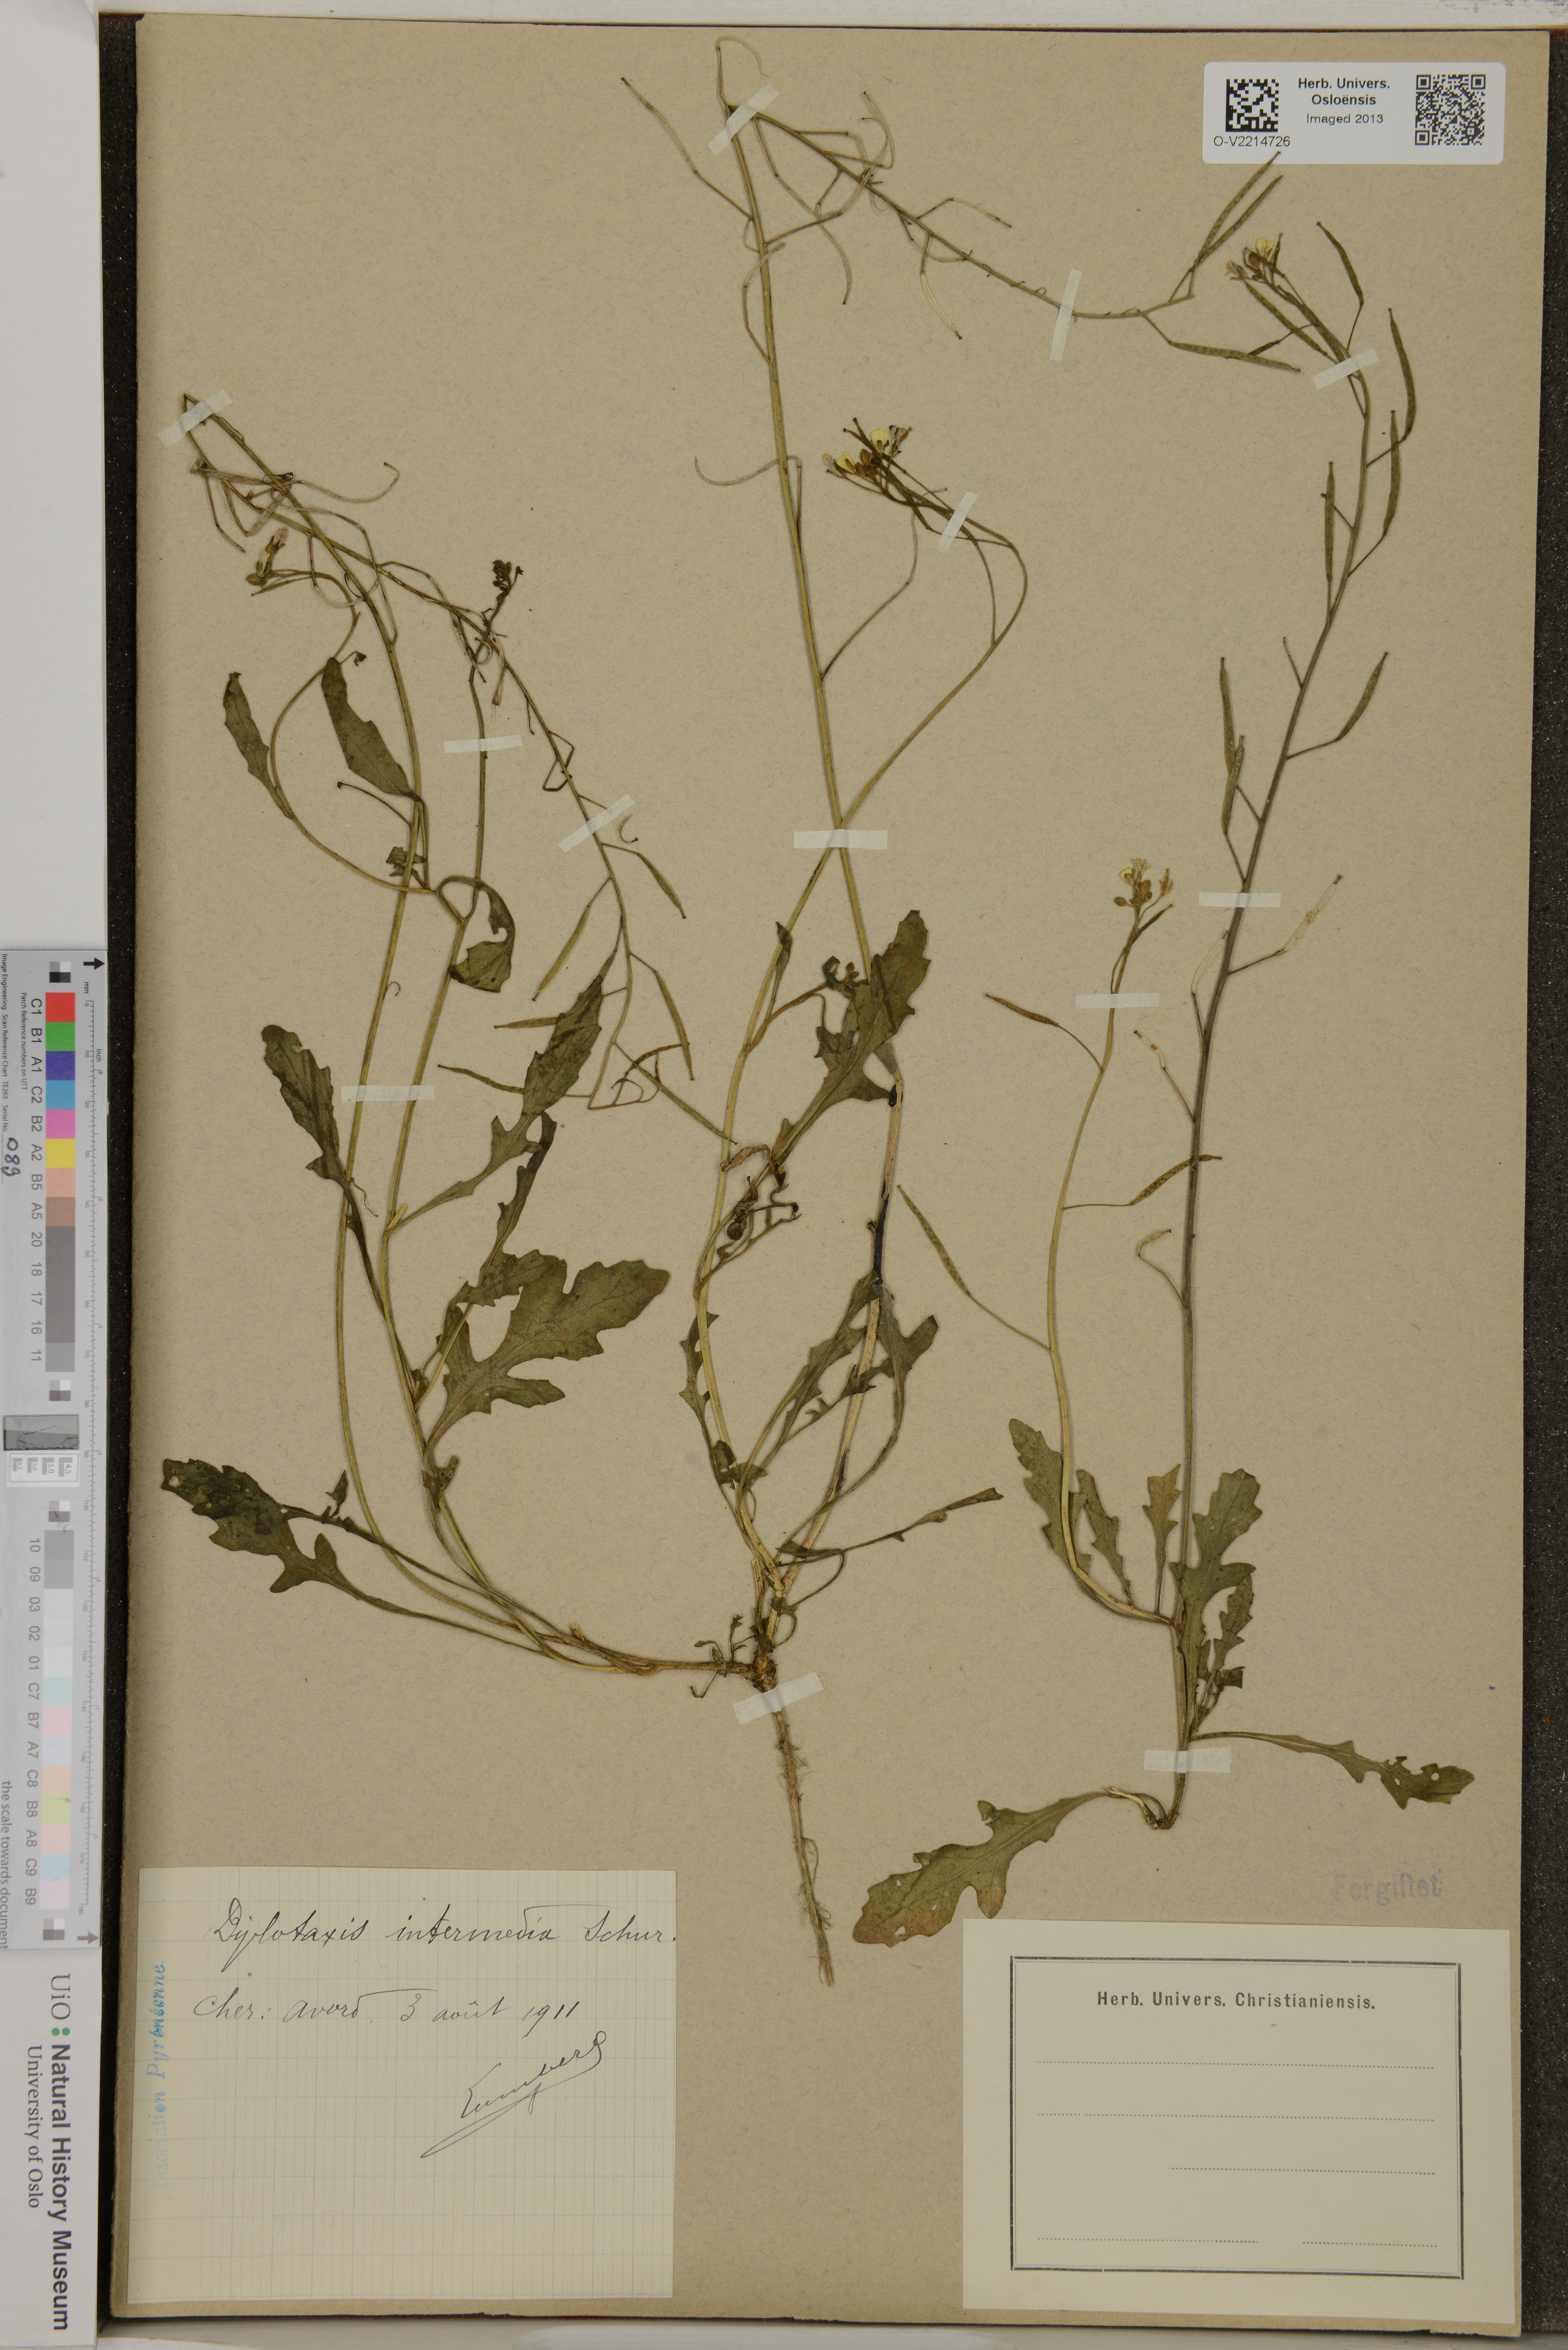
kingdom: Plantae
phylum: Tracheophyta
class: Magnoliopsida
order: Brassicales
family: Brassicaceae
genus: Diplotaxis
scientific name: Diplotaxis muralis
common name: Annual wall-rocket
